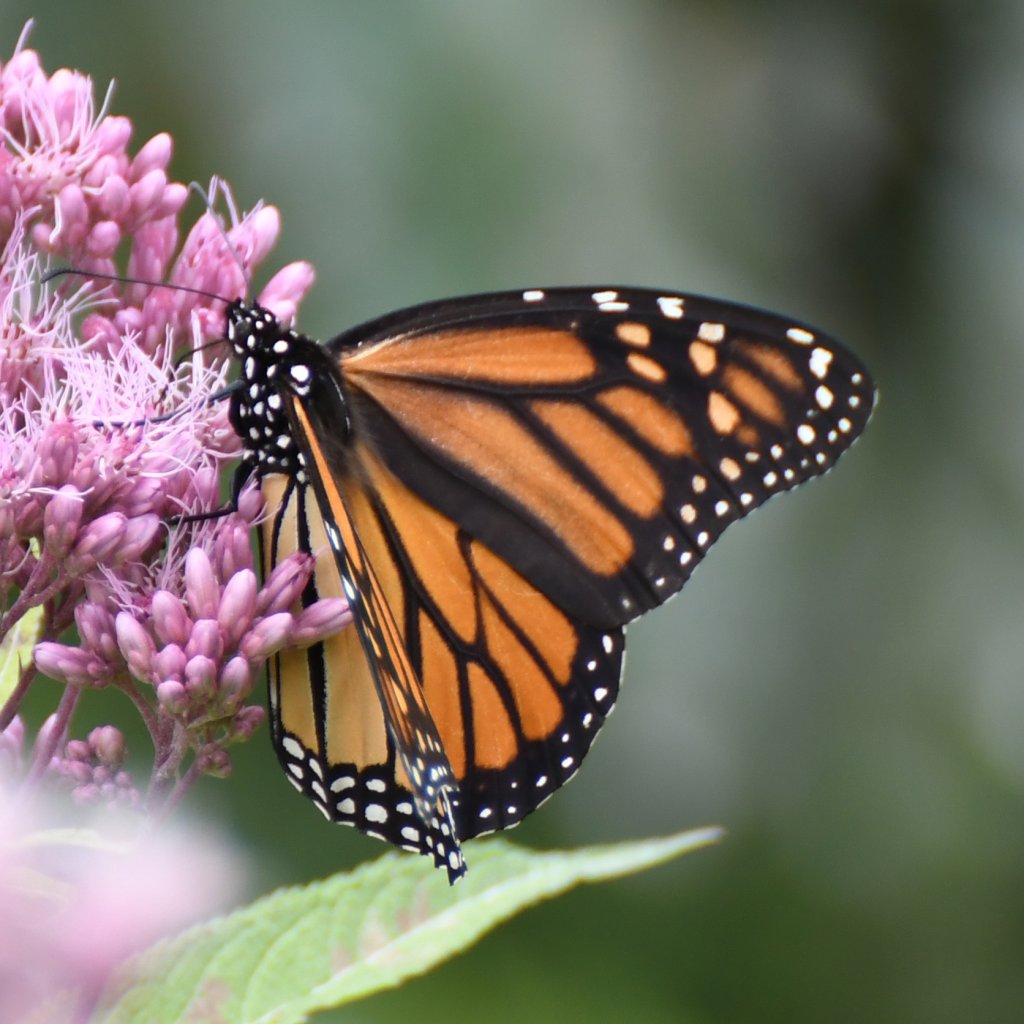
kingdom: Animalia
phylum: Arthropoda
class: Insecta
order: Lepidoptera
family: Nymphalidae
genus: Danaus
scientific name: Danaus plexippus
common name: Monarch
